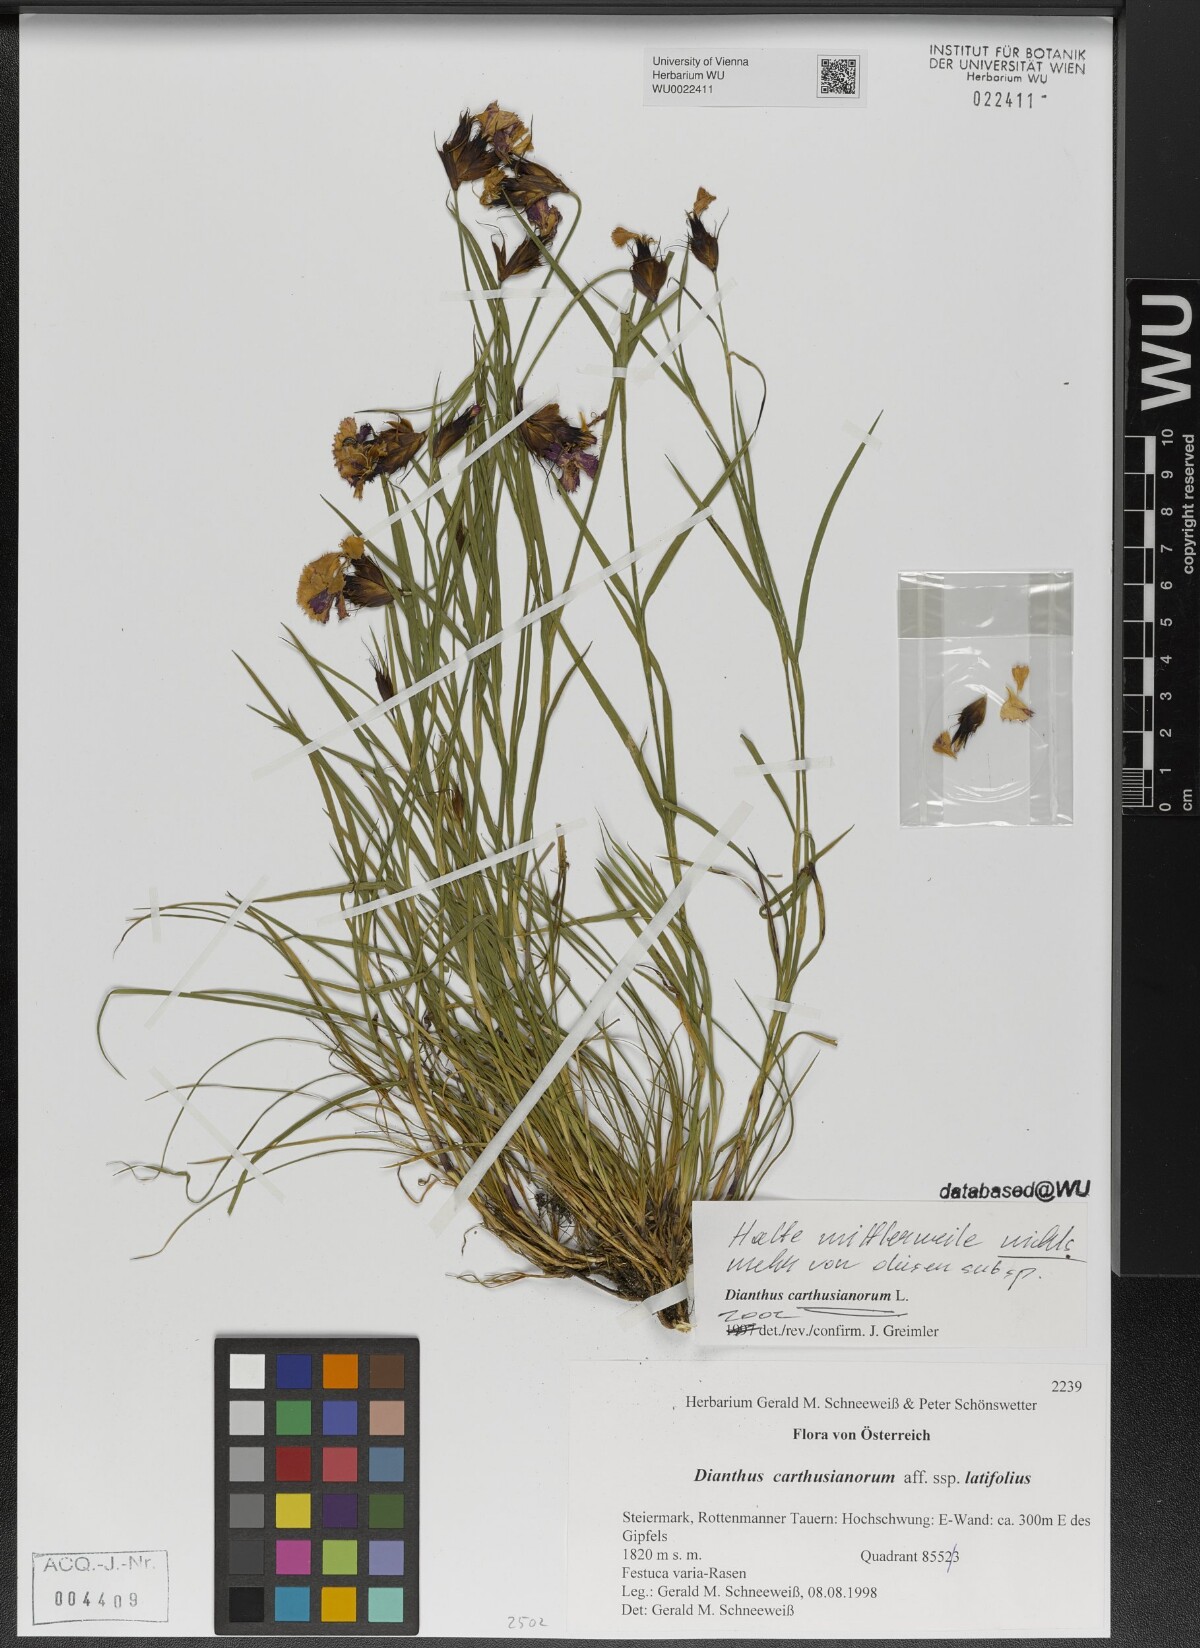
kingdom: Plantae
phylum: Tracheophyta
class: Magnoliopsida
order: Caryophyllales
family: Caryophyllaceae
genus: Dianthus
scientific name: Dianthus carthusianorum
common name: Carthusian pink
